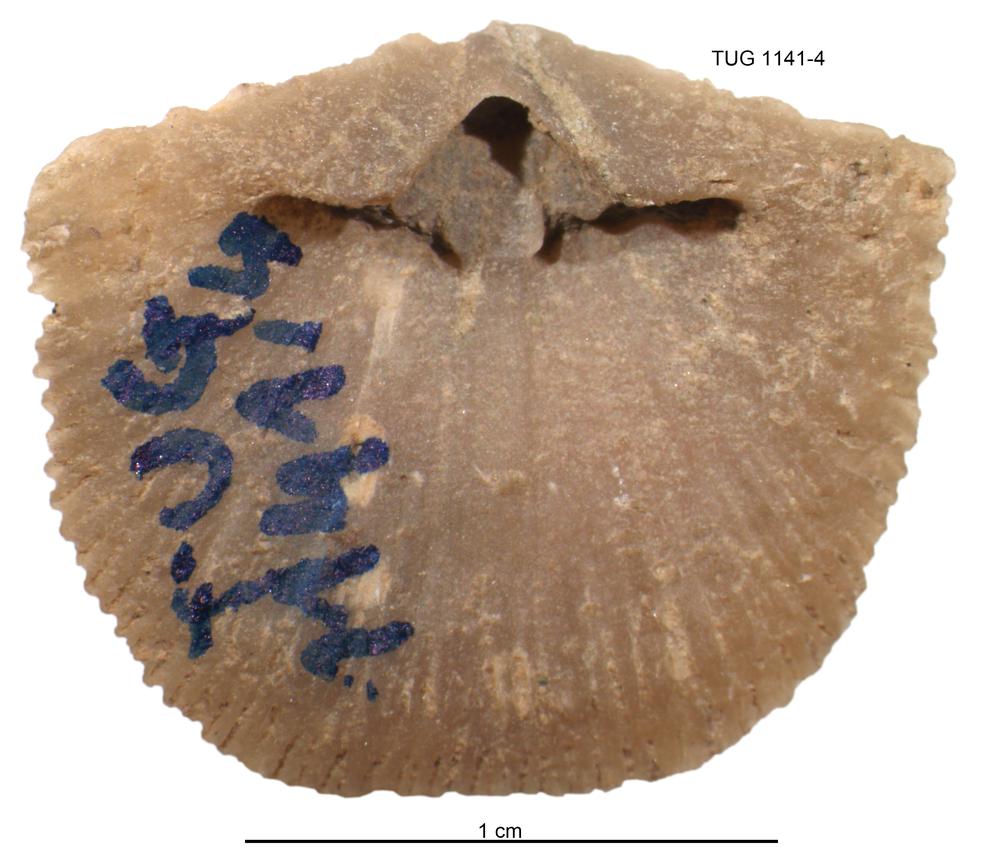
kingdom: Animalia
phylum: Brachiopoda
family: Gonambonitidae
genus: Gonambonites
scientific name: Gonambonites plana
